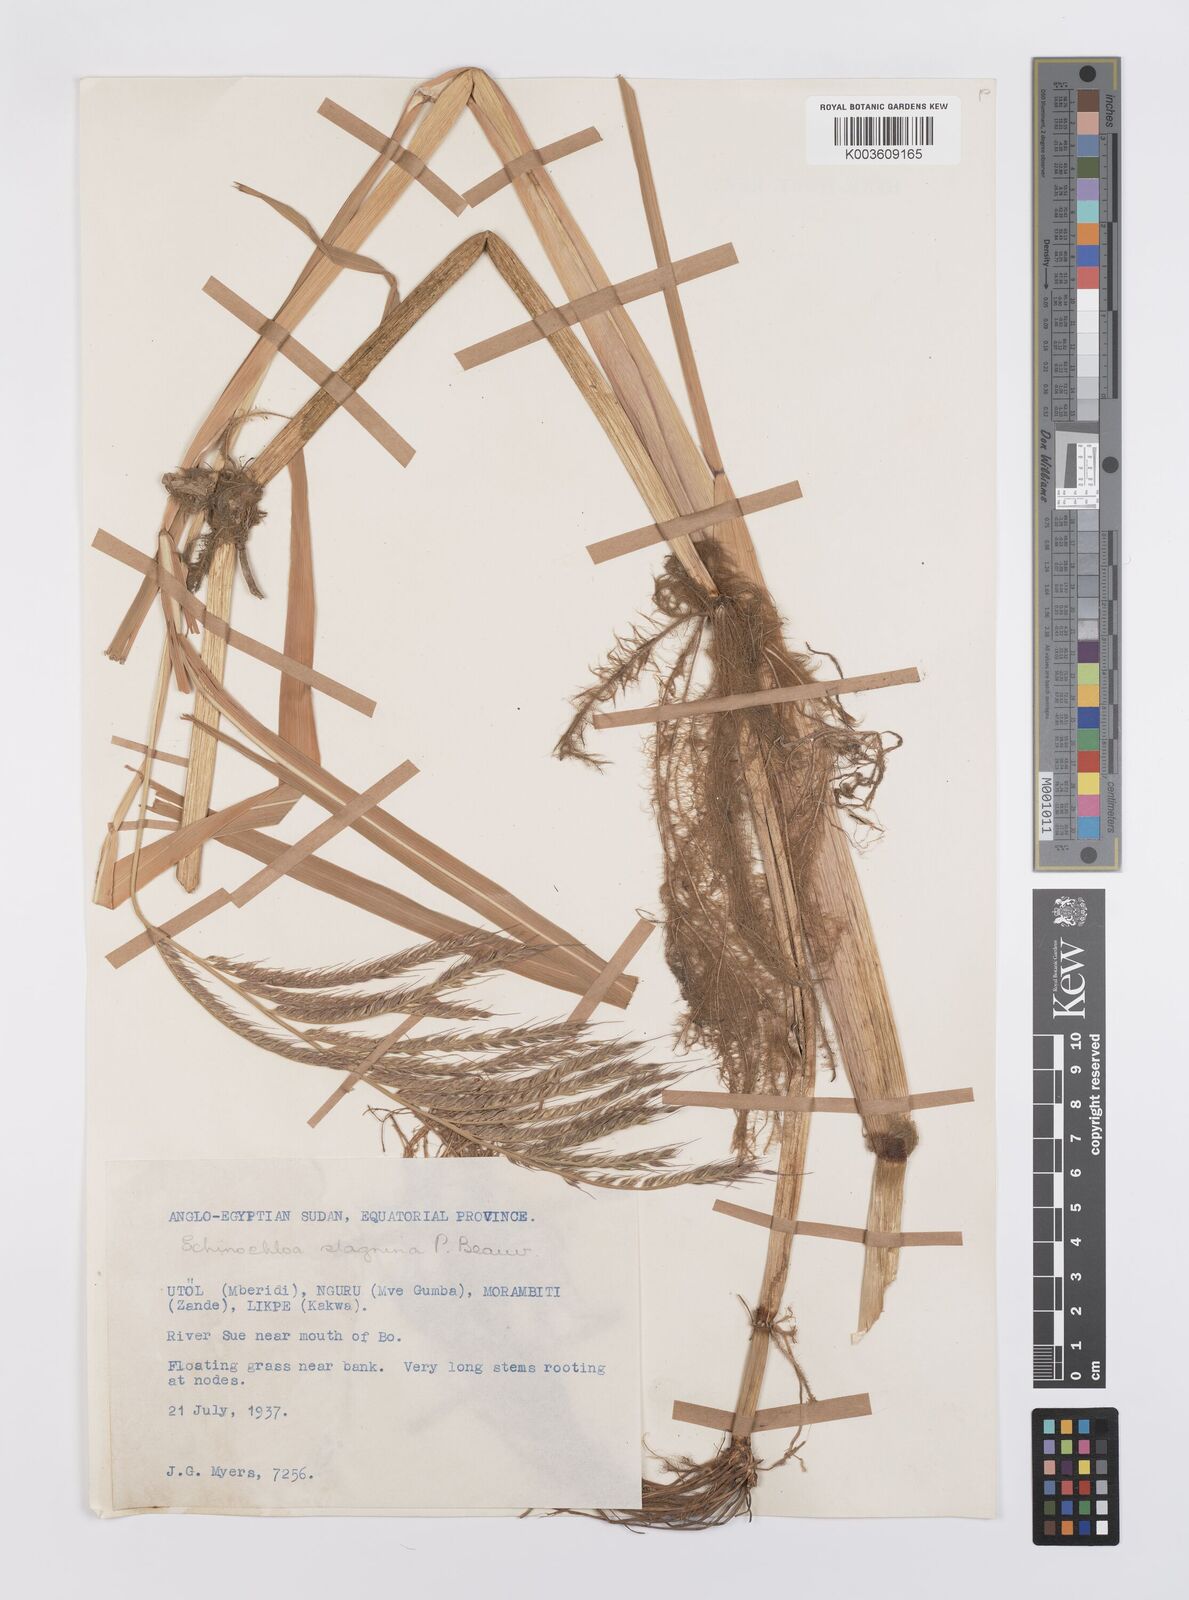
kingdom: Plantae
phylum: Tracheophyta
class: Liliopsida
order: Poales
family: Poaceae
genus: Echinochloa
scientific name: Echinochloa stagnina
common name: Burgu grass
